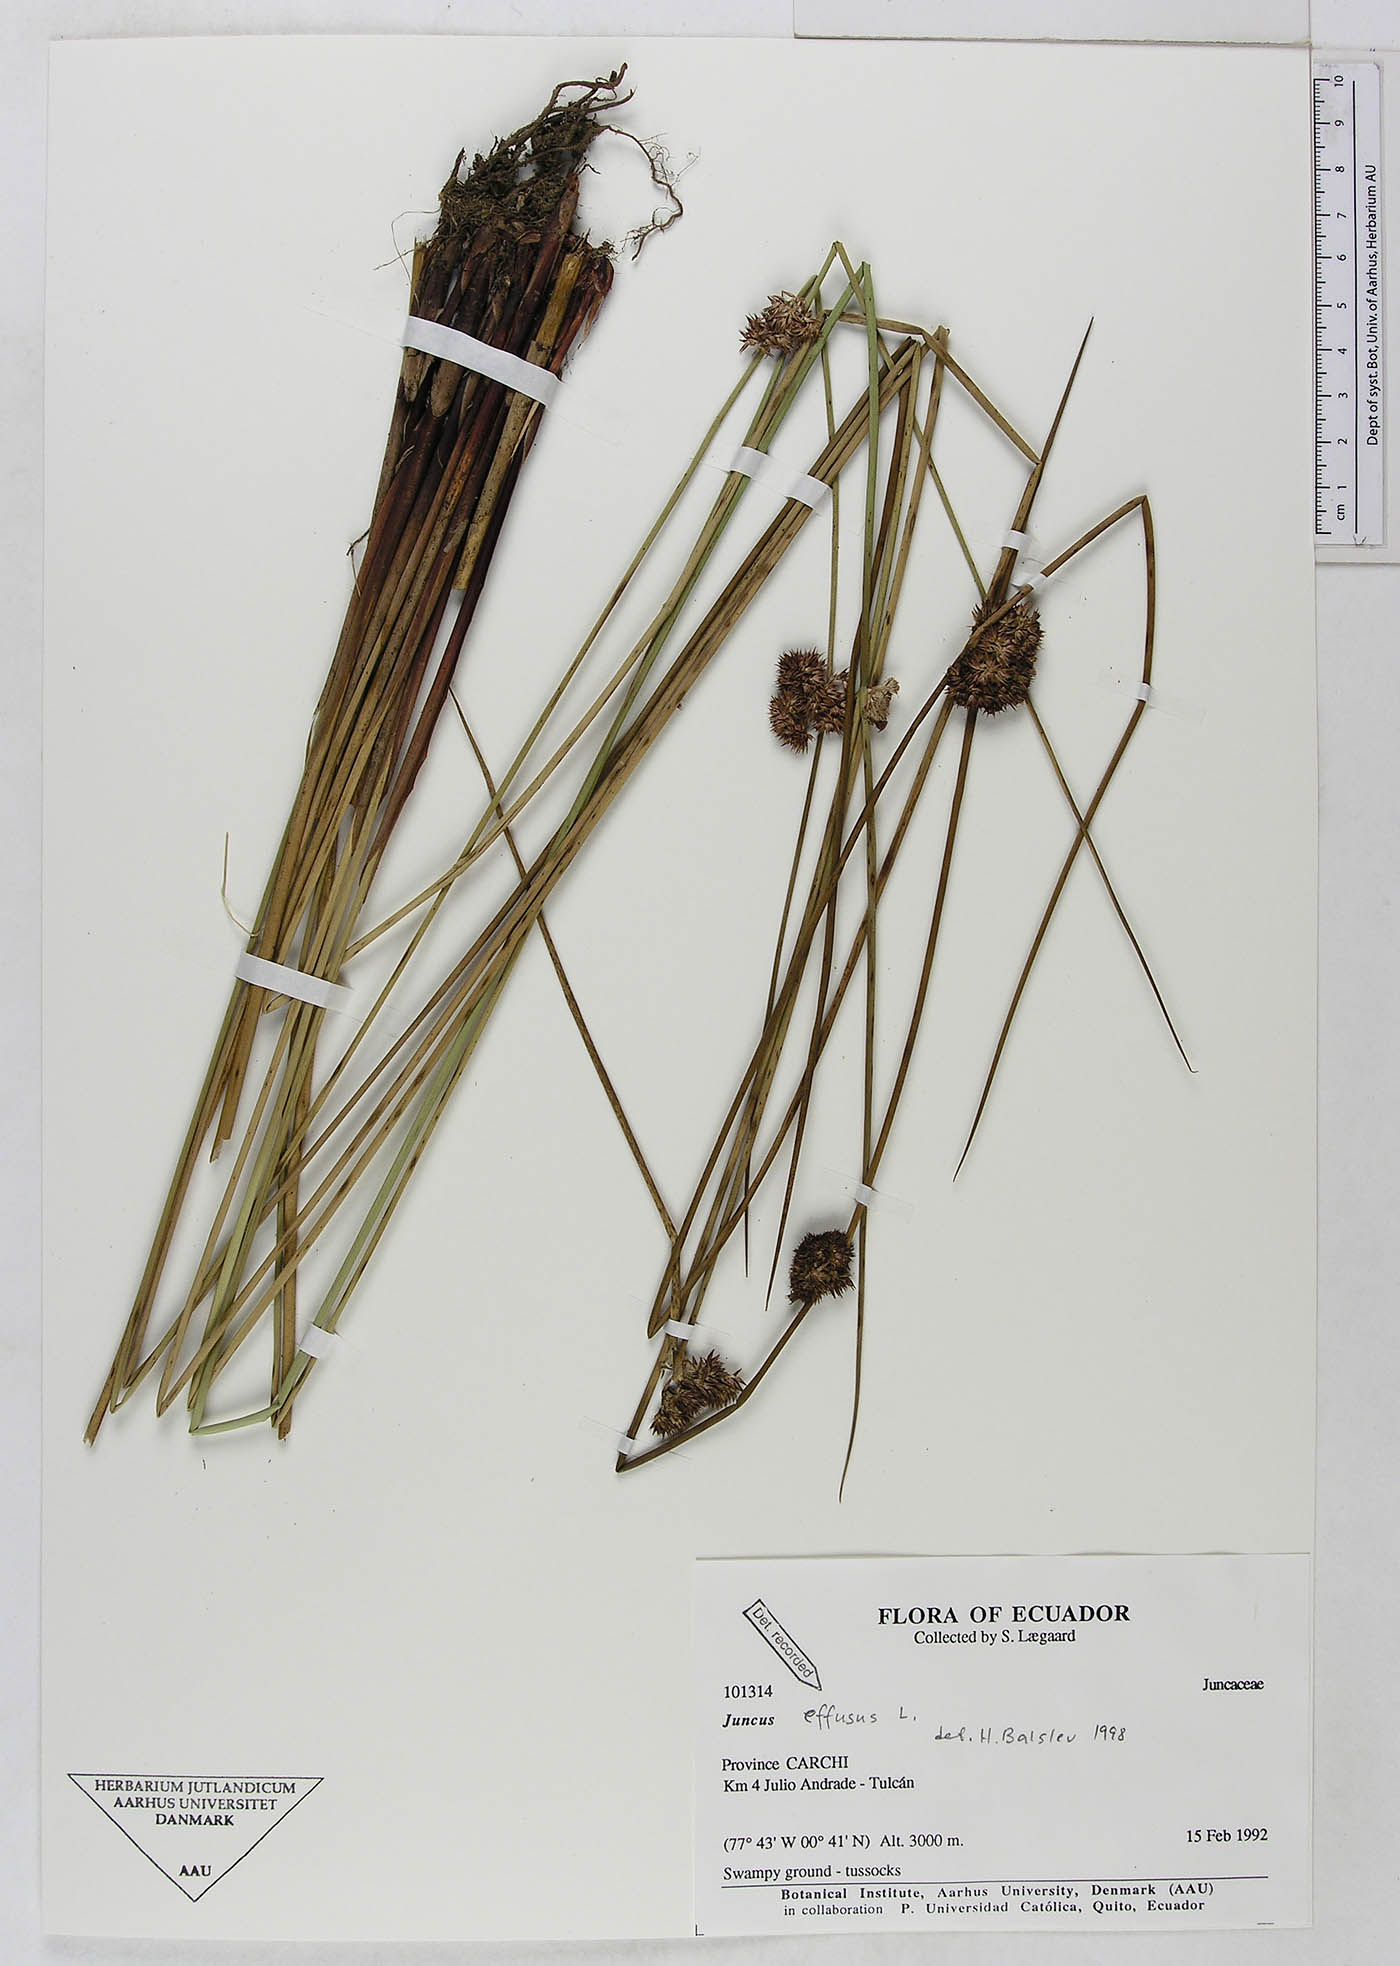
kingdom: Plantae
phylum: Tracheophyta
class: Liliopsida
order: Poales
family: Juncaceae
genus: Juncus
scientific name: Juncus effusus
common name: Soft rush
